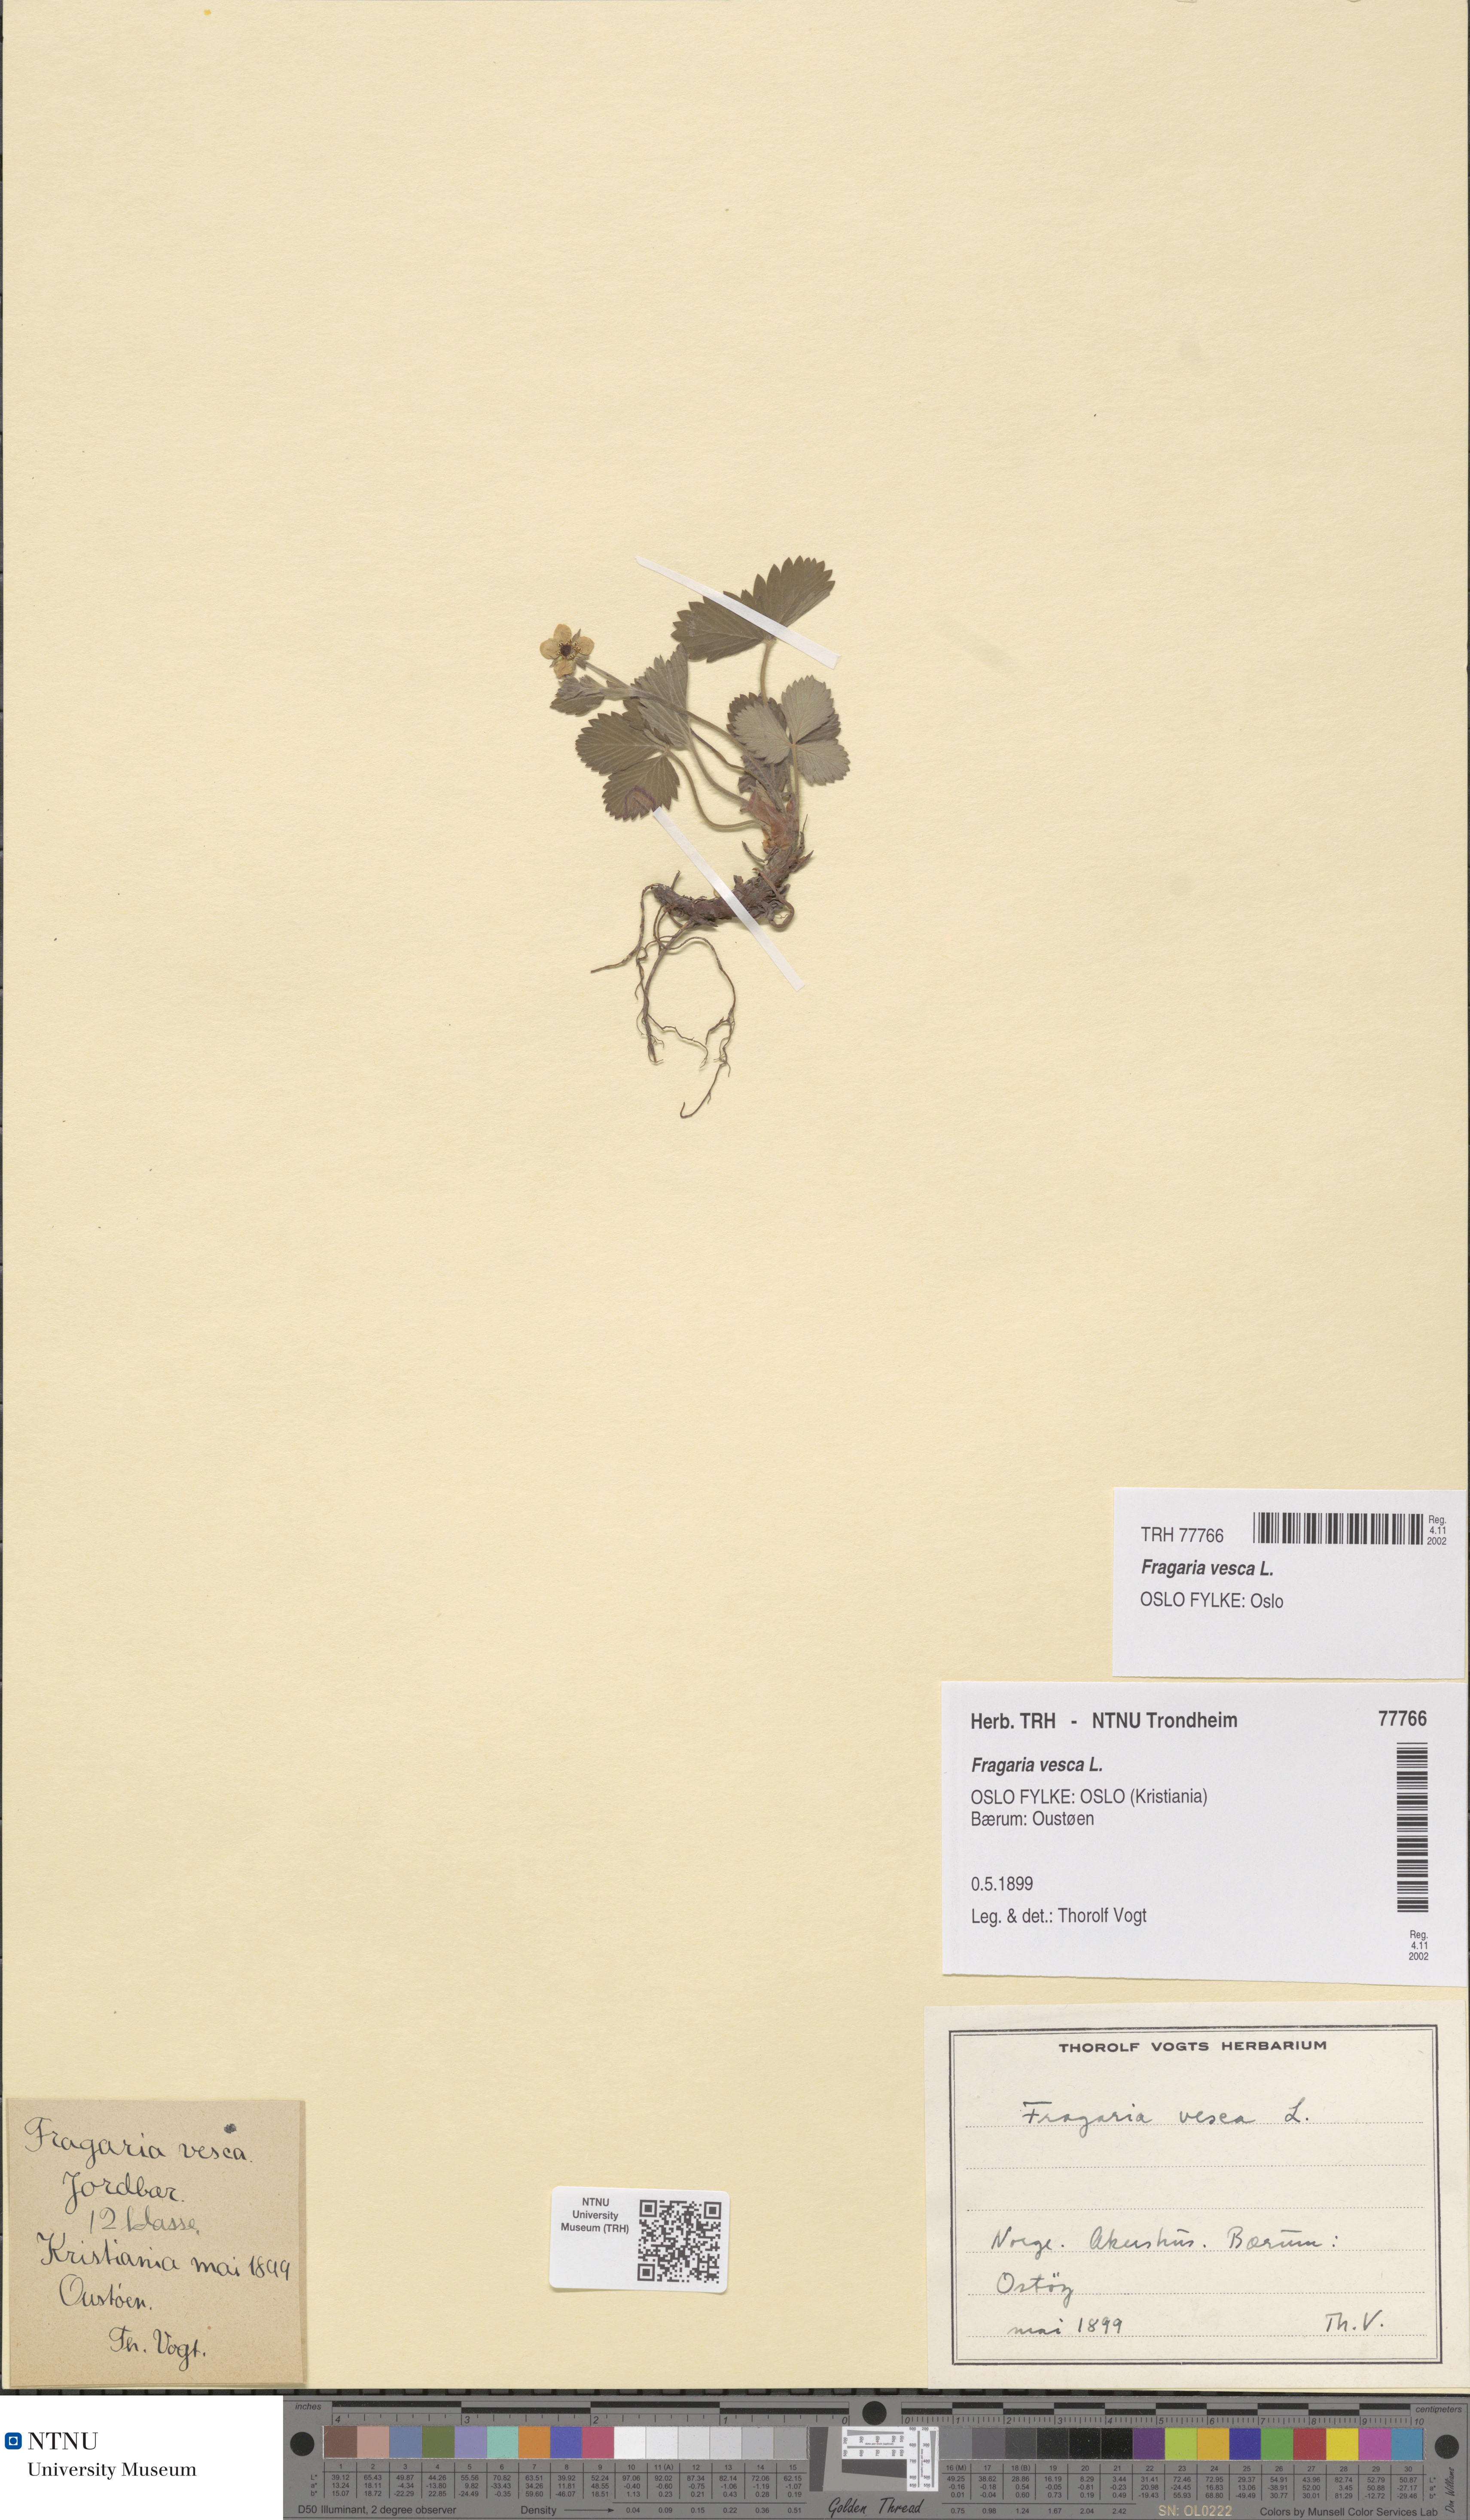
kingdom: Plantae
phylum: Tracheophyta
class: Magnoliopsida
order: Rosales
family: Rosaceae
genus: Fragaria
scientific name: Fragaria vesca
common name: Wild strawberry
